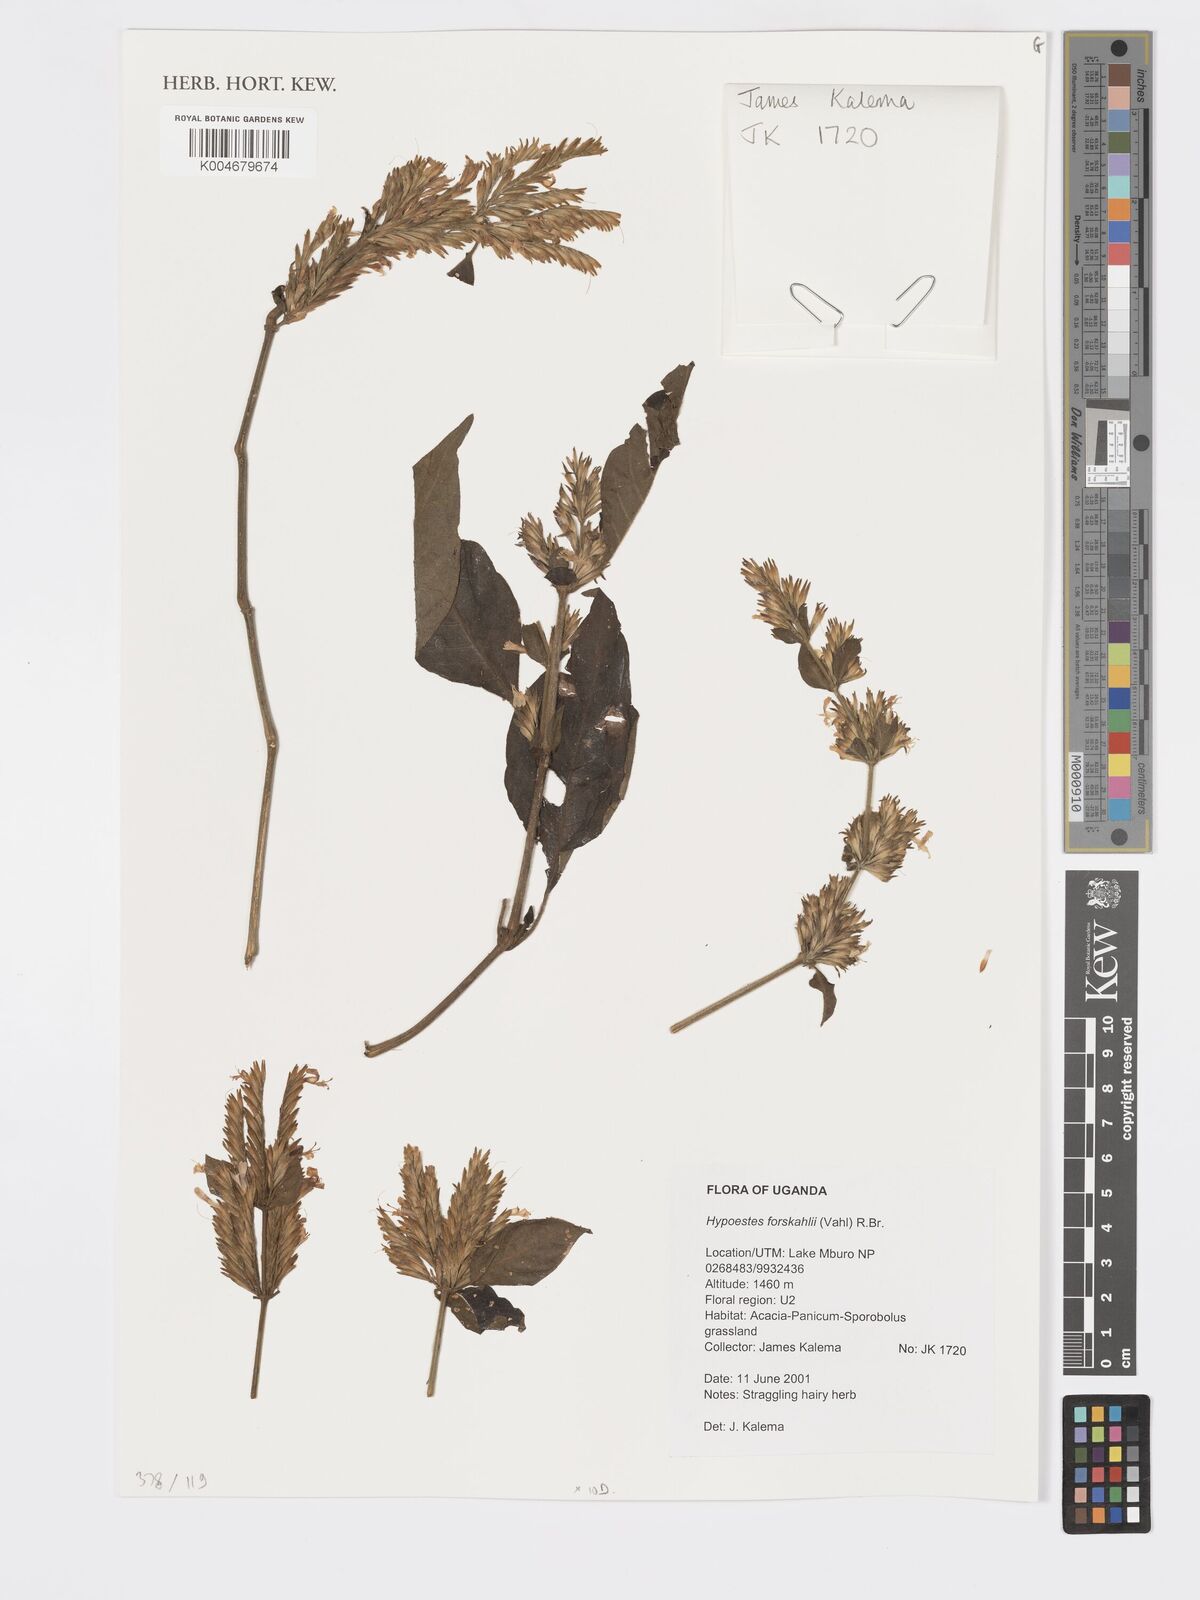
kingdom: Plantae
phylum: Tracheophyta
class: Magnoliopsida
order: Lamiales
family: Acanthaceae
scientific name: Acanthaceae
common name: Acanthaceae
